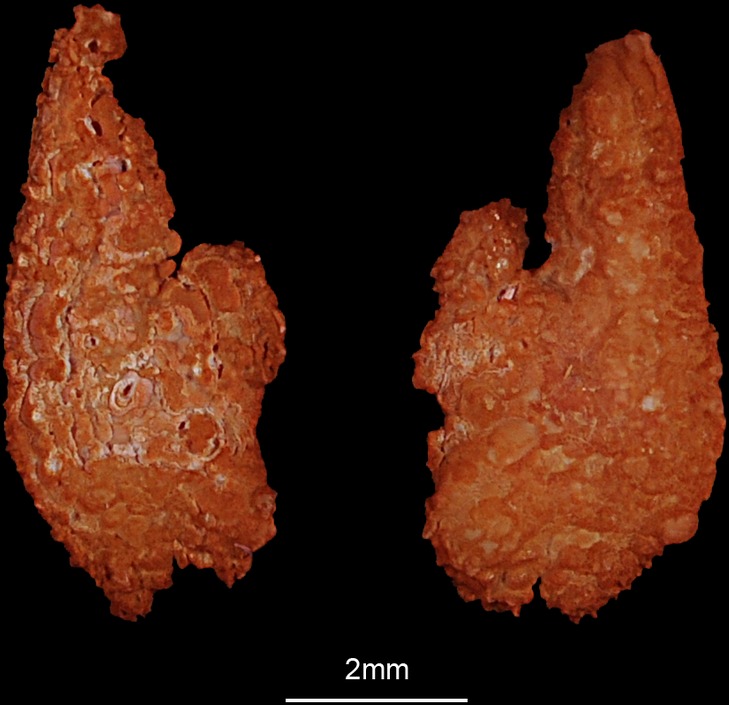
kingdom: Animalia
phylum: Chordata
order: Esociformes
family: Esocidae
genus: Esox
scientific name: Esox lucius
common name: Northern pike
